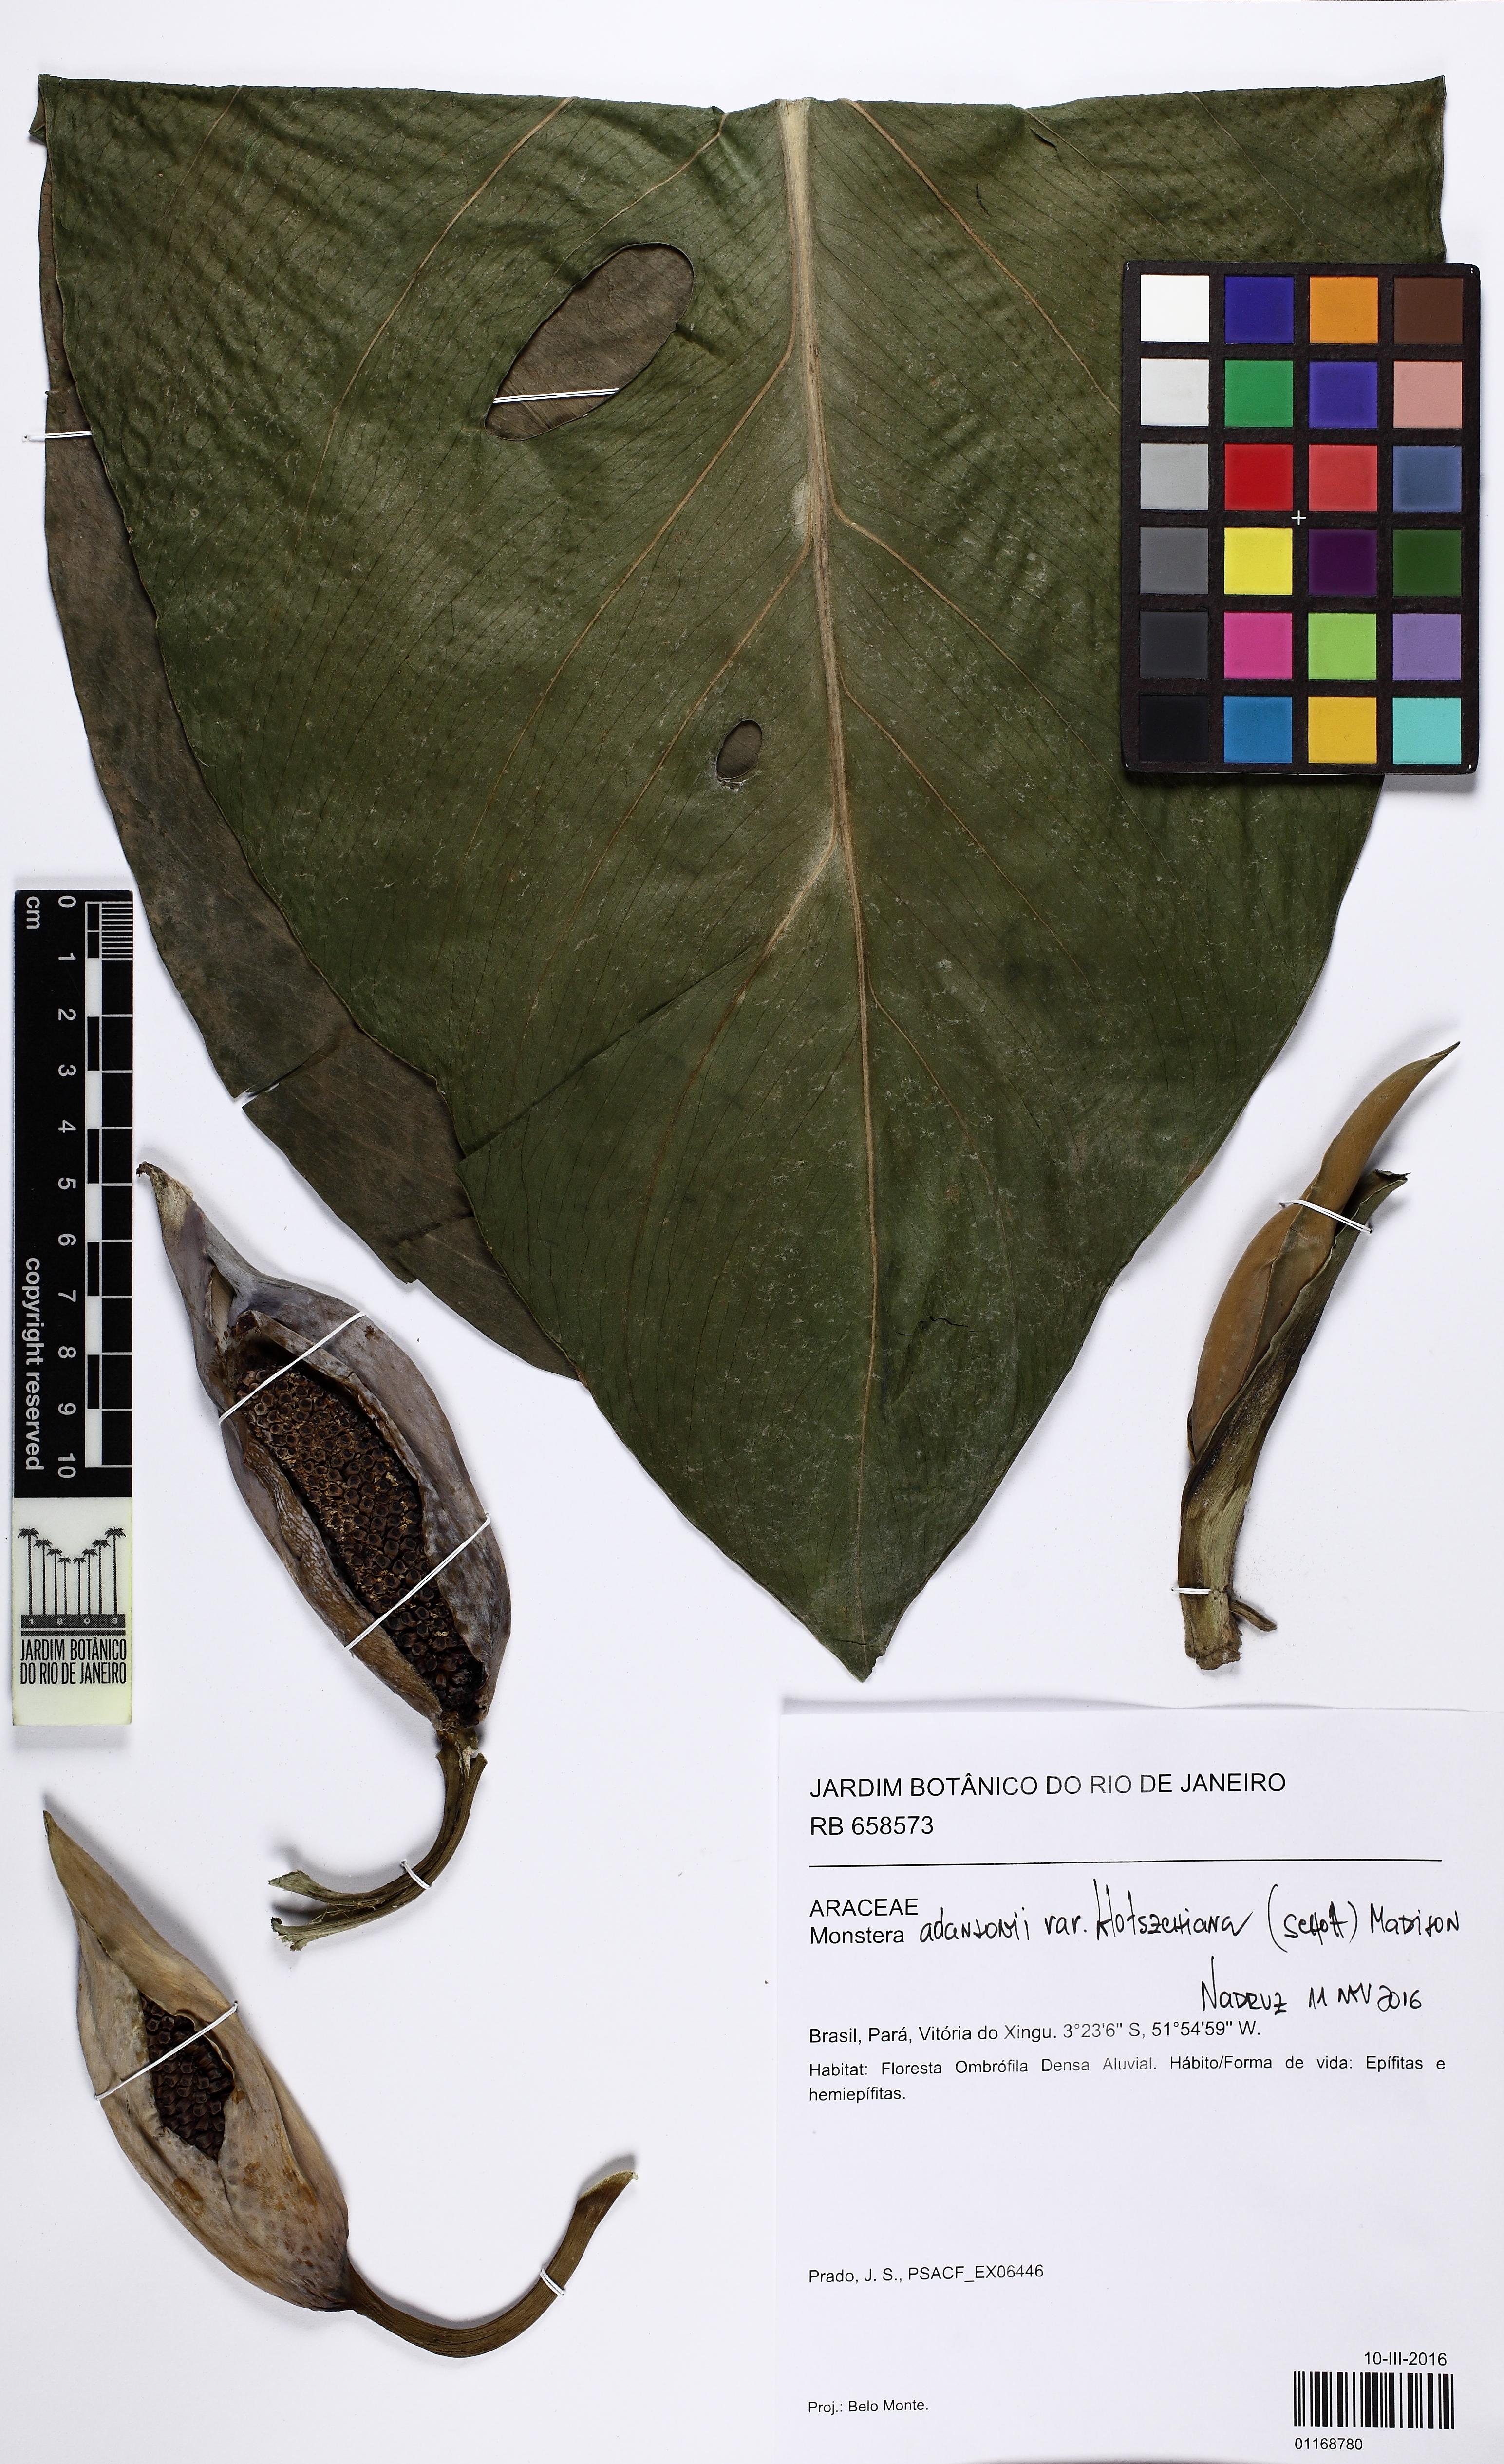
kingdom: Plantae
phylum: Tracheophyta
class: Liliopsida
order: Alismatales
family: Araceae
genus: Monstera
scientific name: Monstera adansonii
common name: Tarovine
